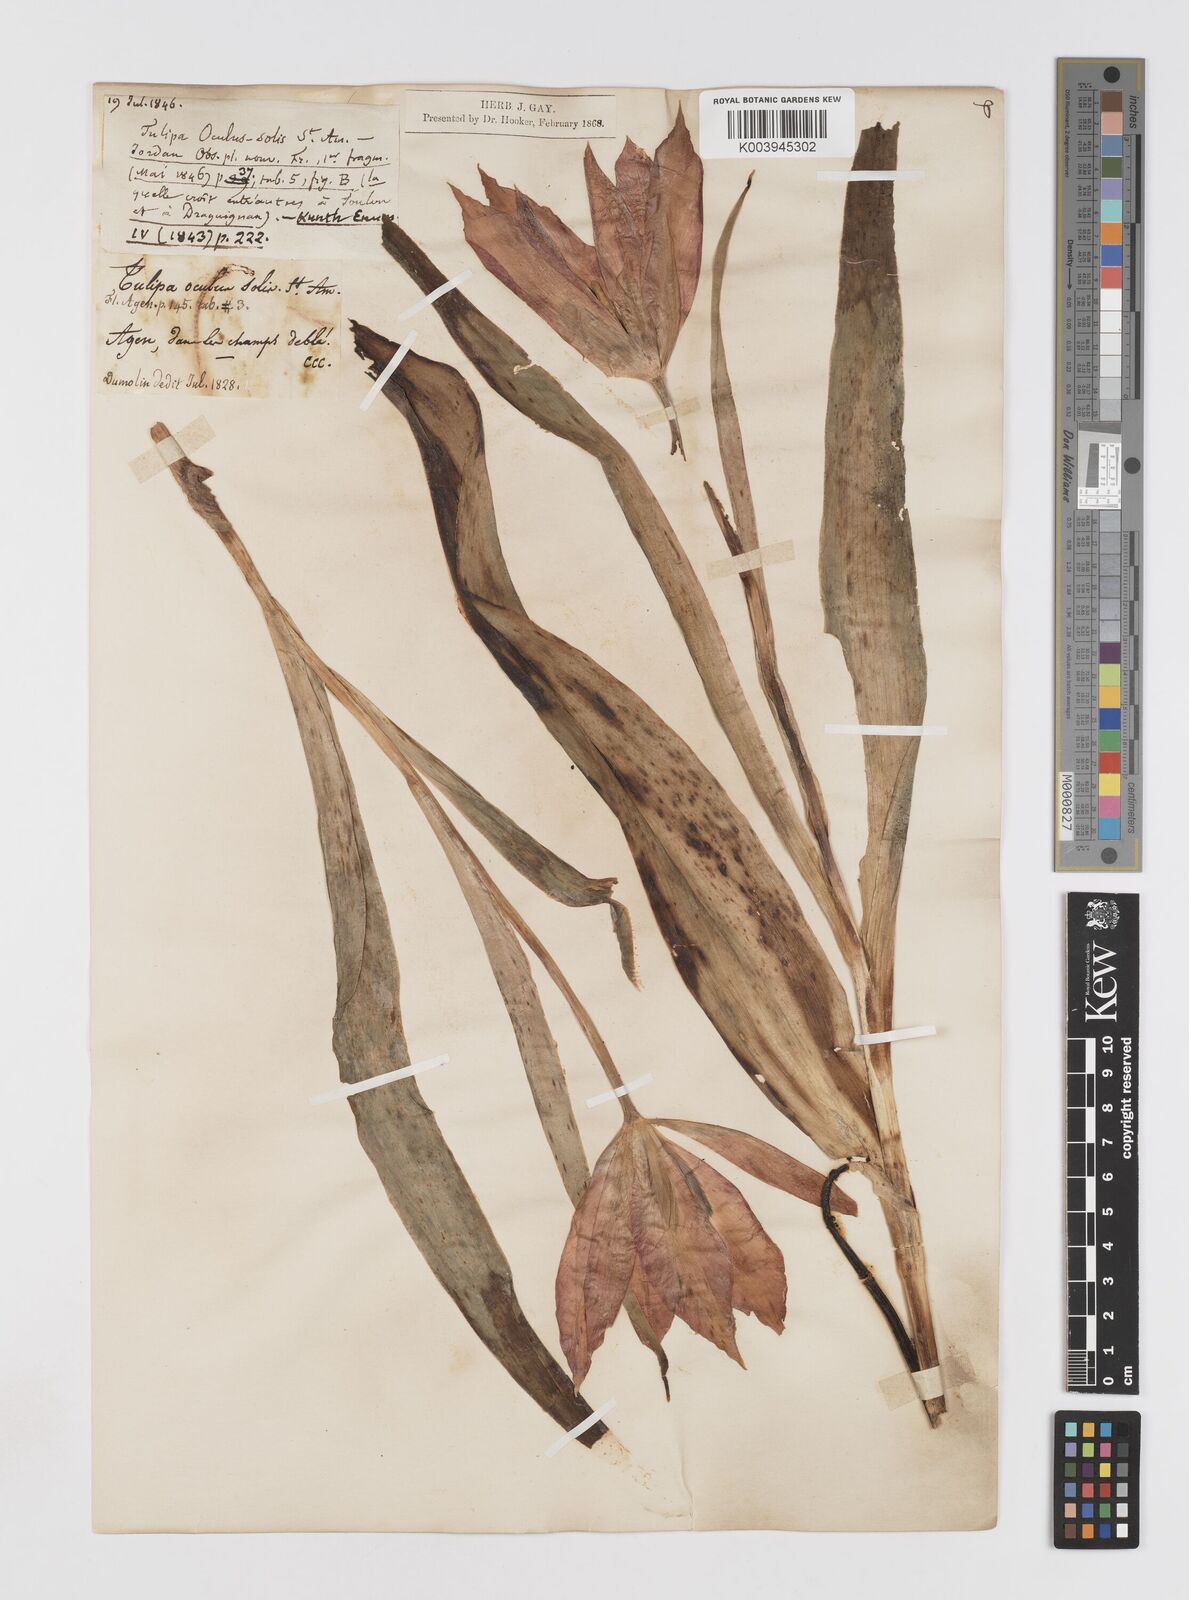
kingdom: Plantae
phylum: Tracheophyta
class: Liliopsida
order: Liliales
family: Liliaceae
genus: Tulipa
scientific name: Tulipa agenensis
